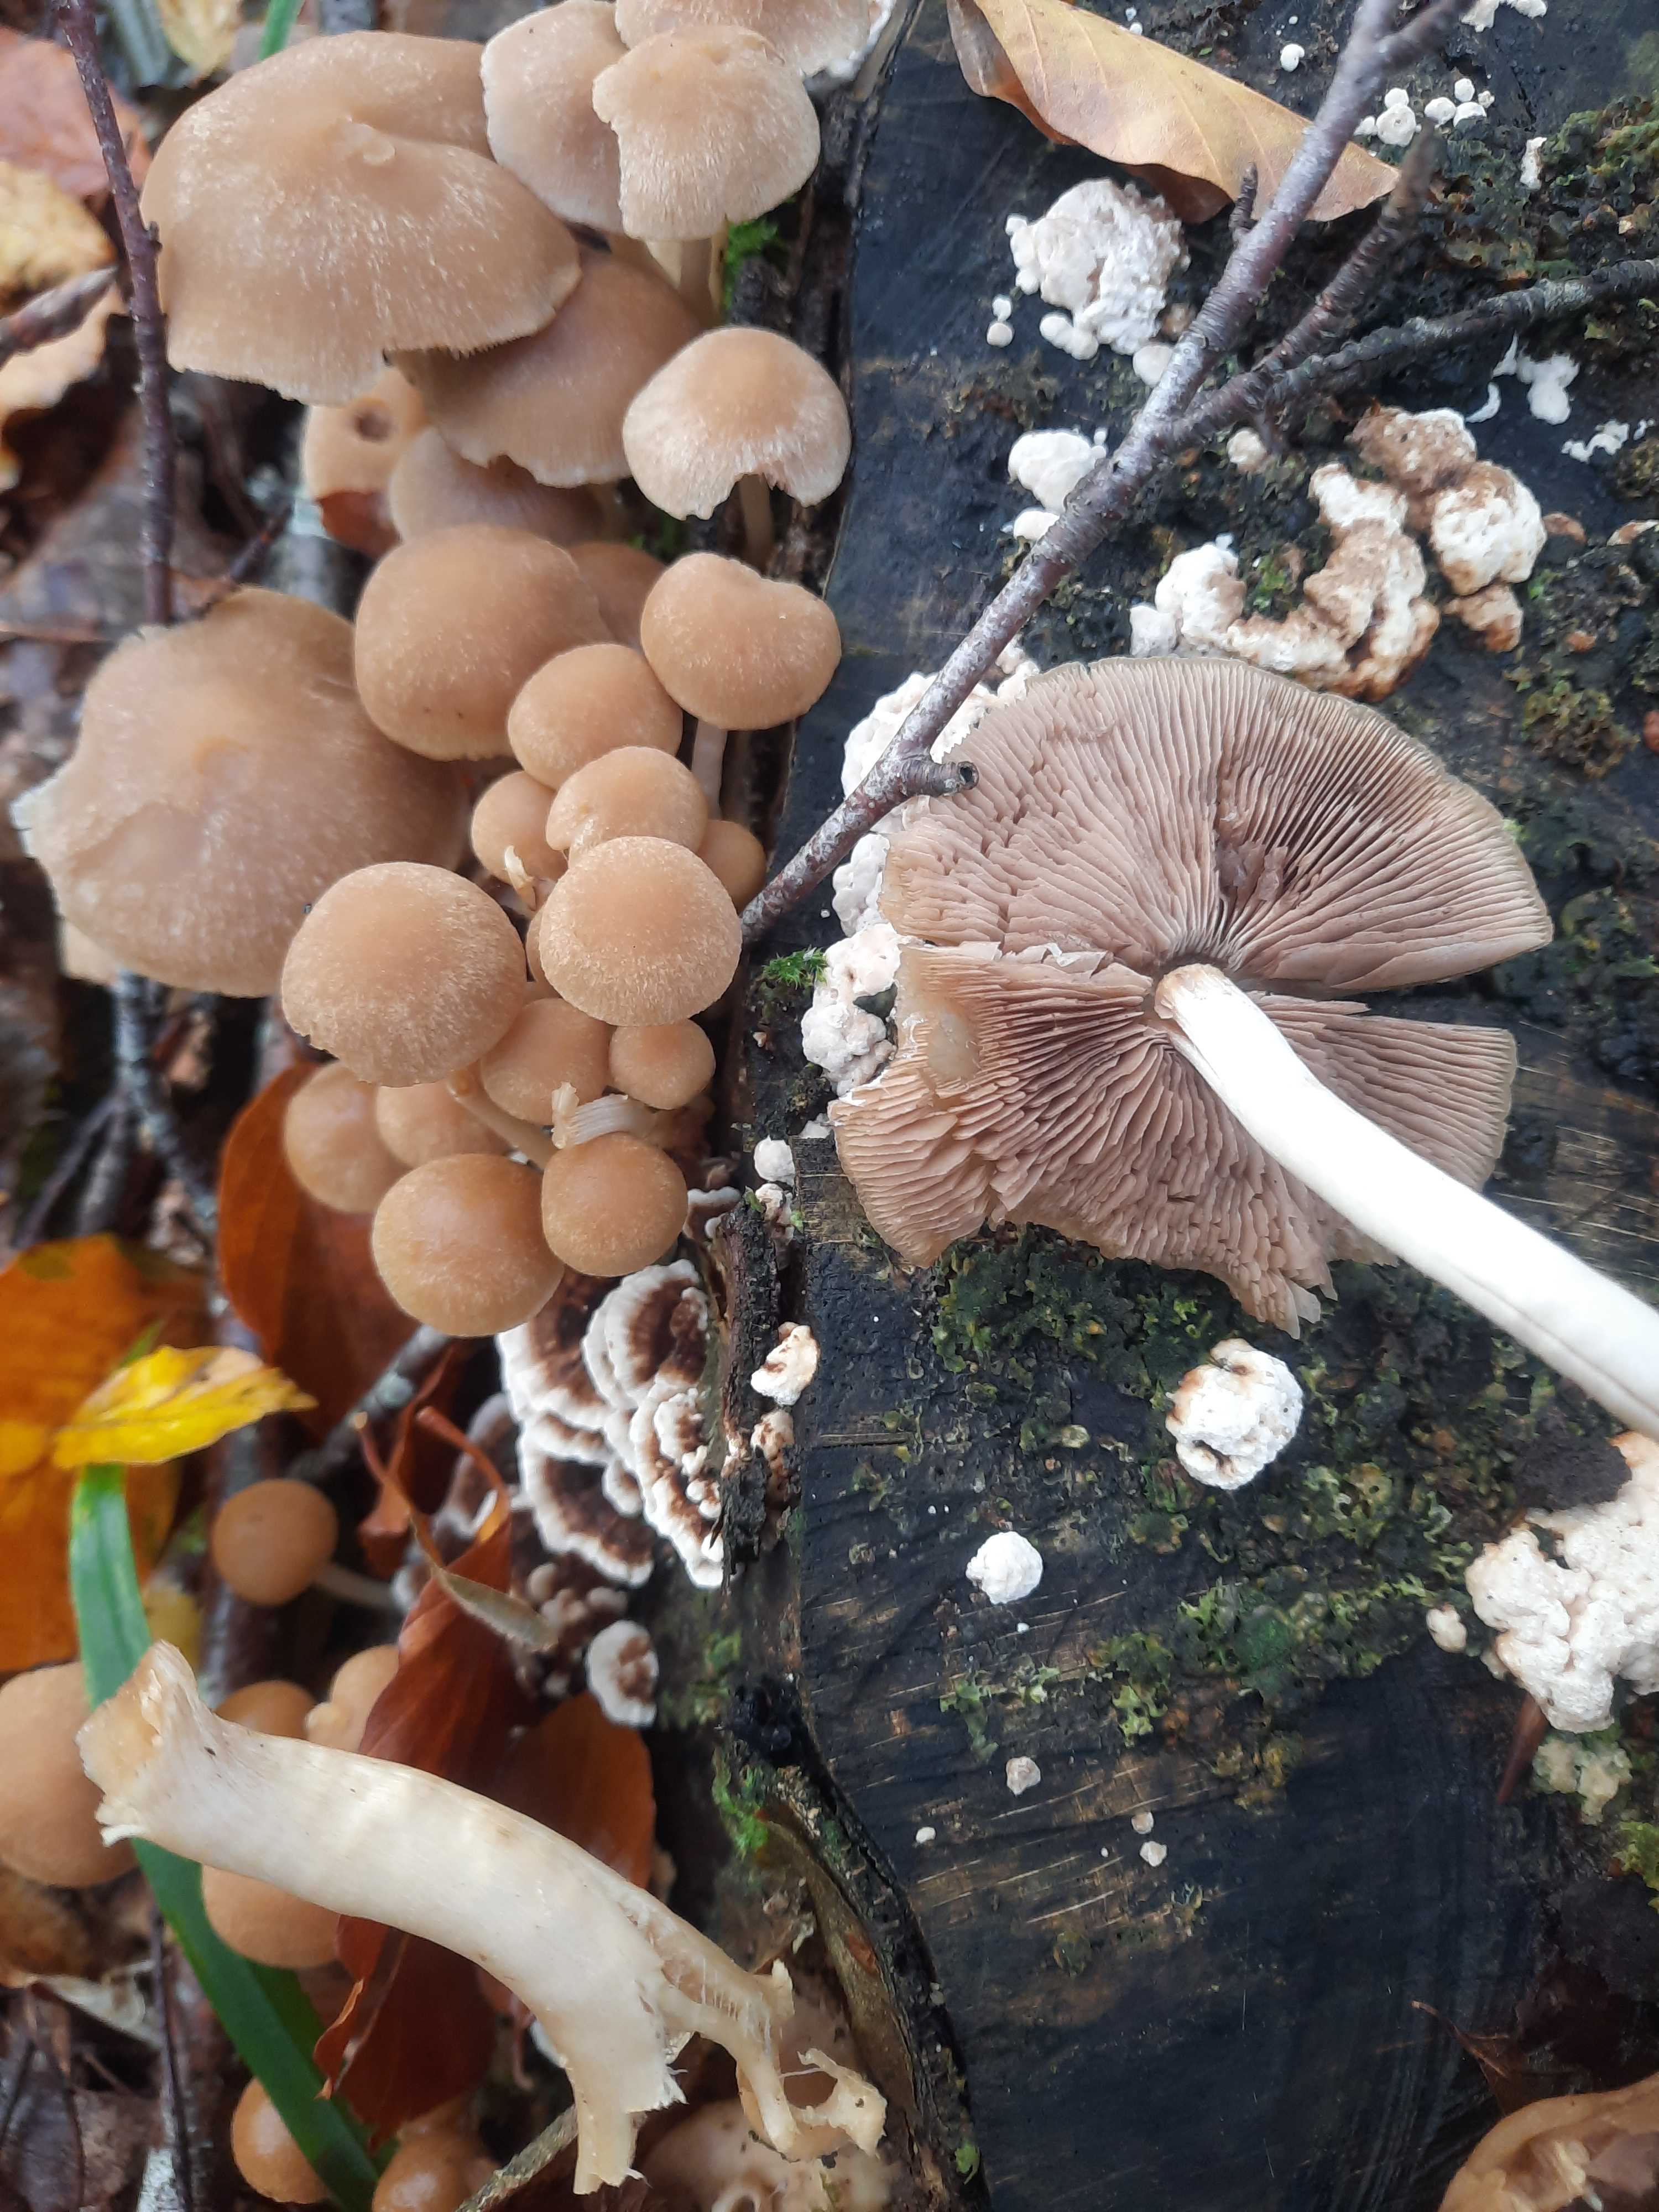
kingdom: Fungi
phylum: Basidiomycota
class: Agaricomycetes
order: Agaricales
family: Psathyrellaceae
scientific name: Psathyrellaceae
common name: mørkhatfamilien
